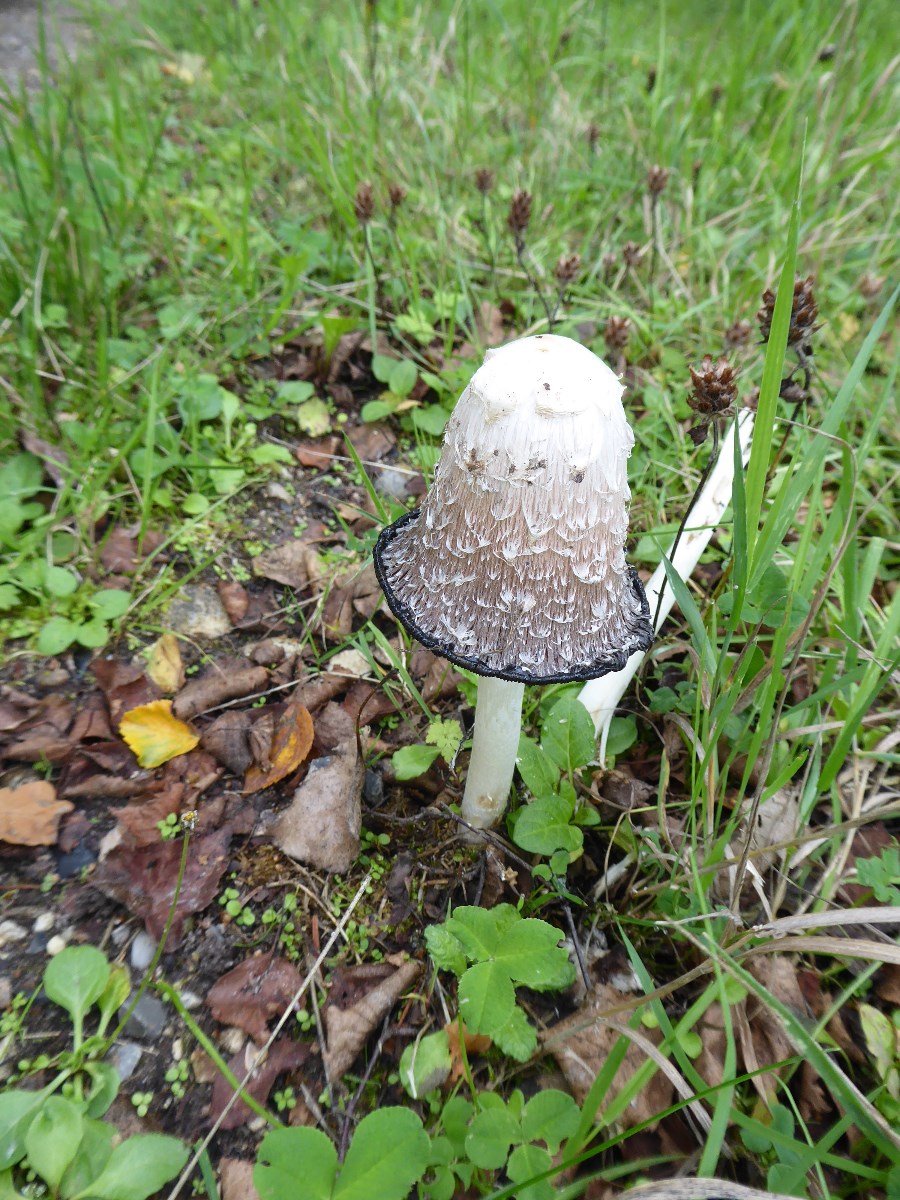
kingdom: Fungi
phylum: Basidiomycota
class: Agaricomycetes
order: Agaricales
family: Agaricaceae
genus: Coprinus
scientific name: Coprinus comatus
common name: stor parykhat
